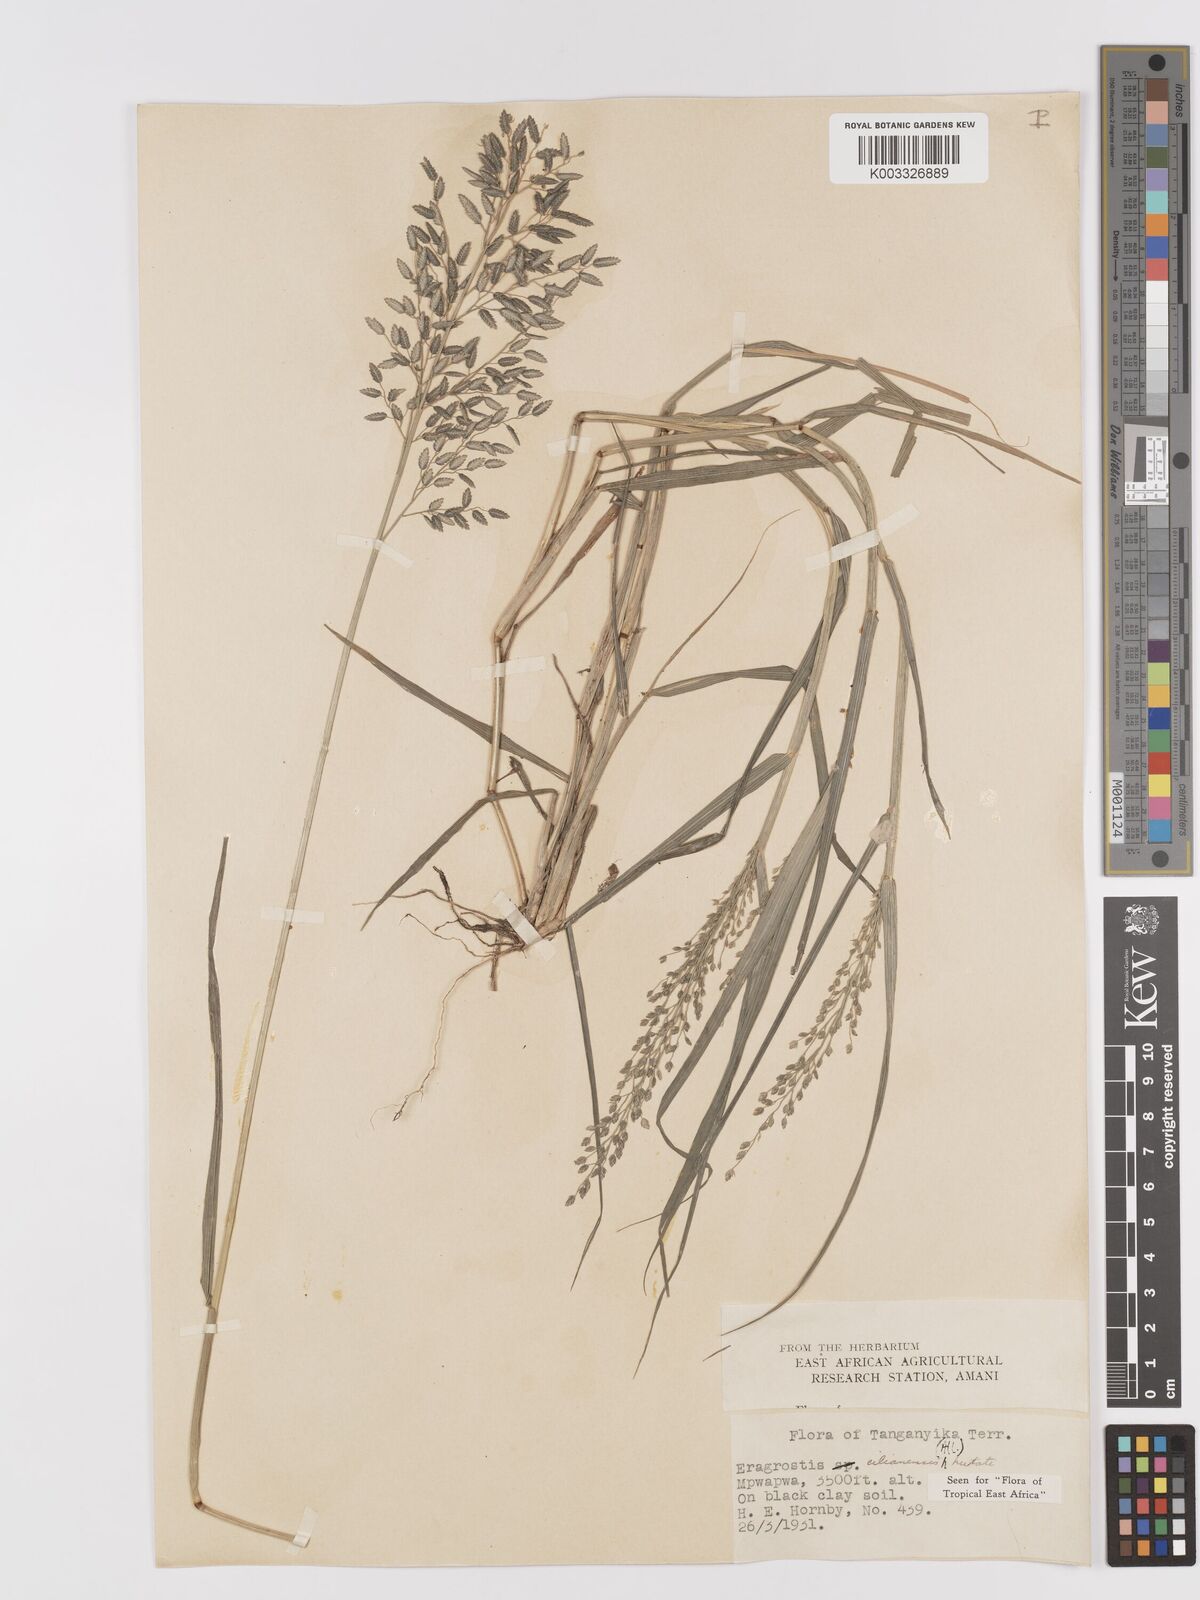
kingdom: Plantae
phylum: Tracheophyta
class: Liliopsida
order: Poales
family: Poaceae
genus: Eragrostis
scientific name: Eragrostis cilianensis
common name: Stinkgrass
